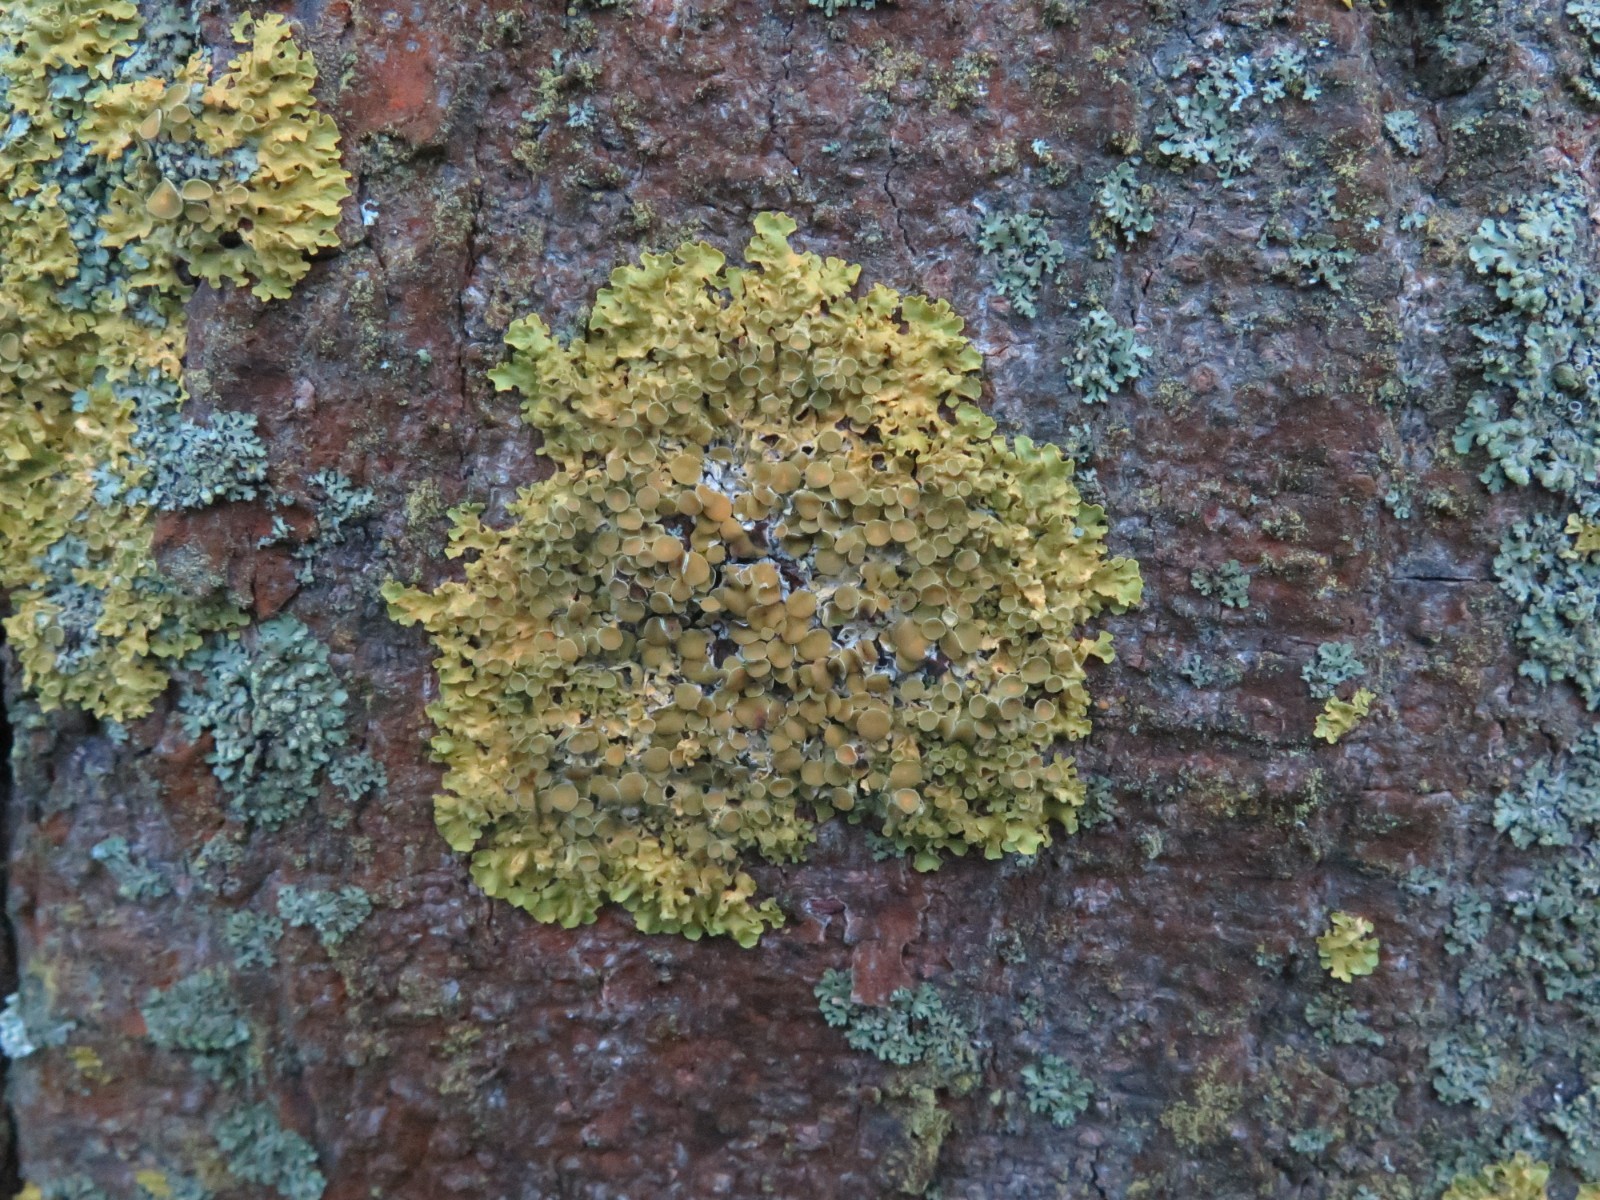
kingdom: Fungi
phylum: Ascomycota
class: Lecanoromycetes
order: Teloschistales
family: Teloschistaceae
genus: Xanthoria
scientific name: Xanthoria parietina
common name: almindelig væggelav
